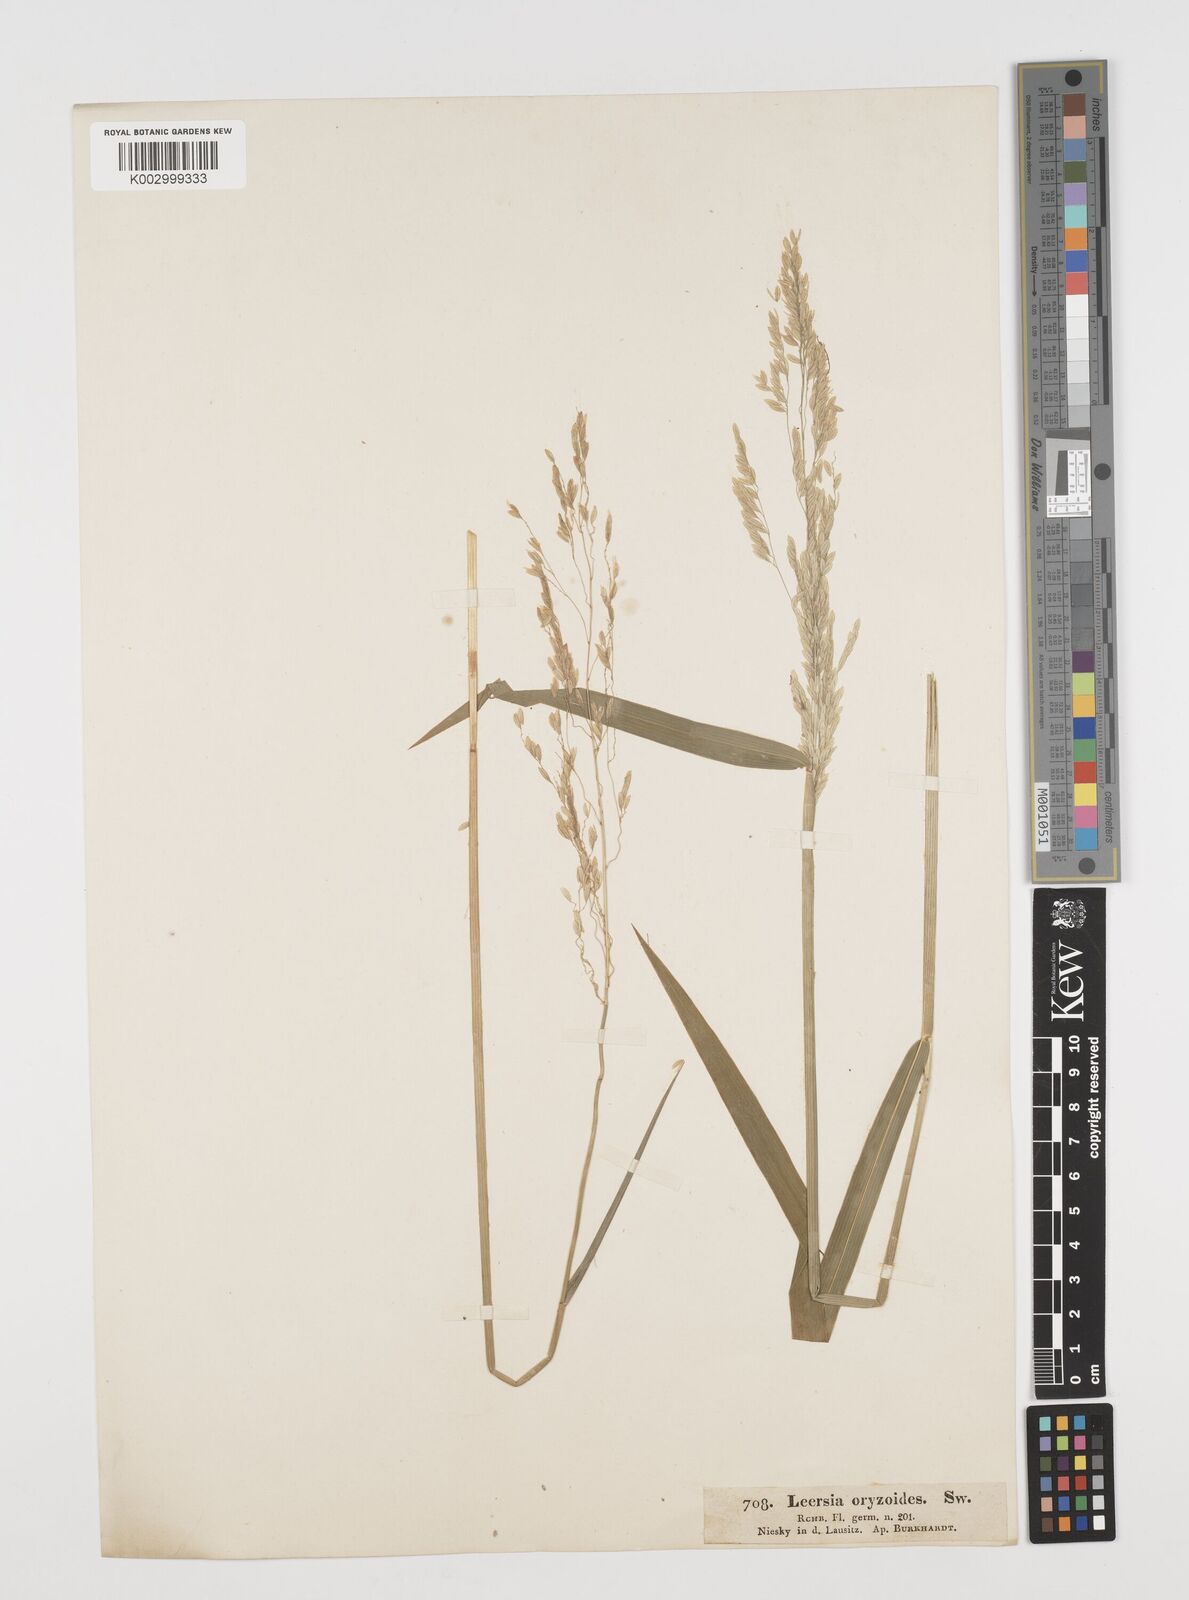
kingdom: Plantae
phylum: Tracheophyta
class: Liliopsida
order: Poales
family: Poaceae
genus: Leersia
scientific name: Leersia oryzoides
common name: Cut-grass
